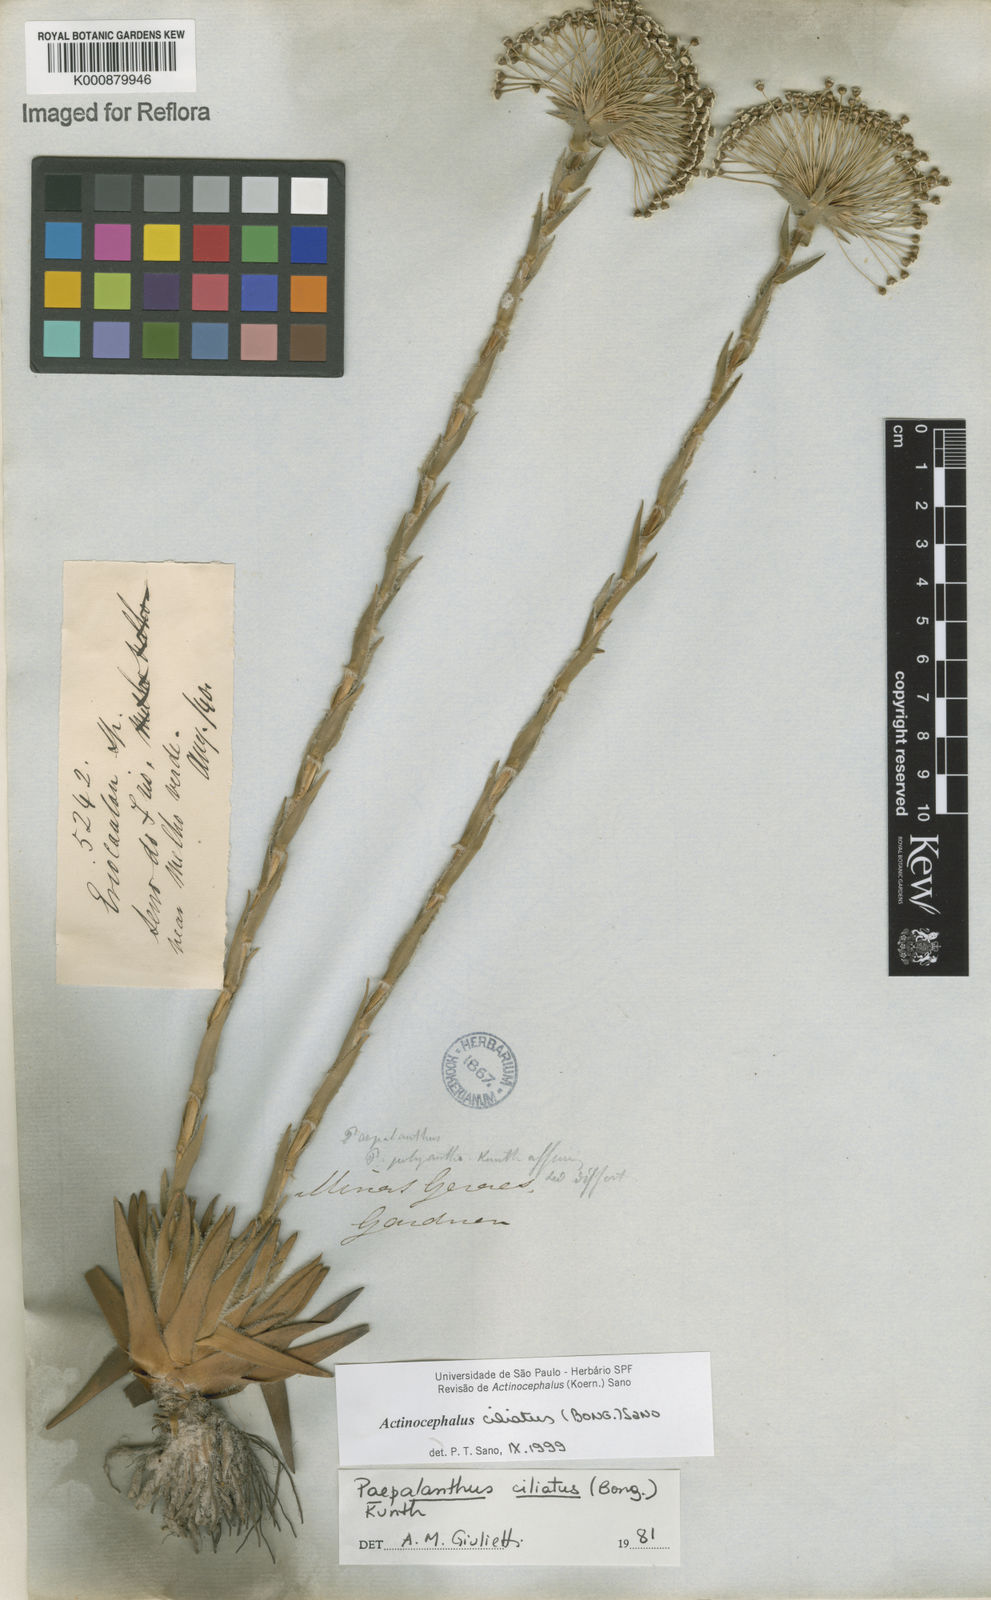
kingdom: Plantae
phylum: Tracheophyta
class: Liliopsida
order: Poales
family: Eriocaulaceae
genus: Paepalanthus
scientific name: Paepalanthus ciliatus
